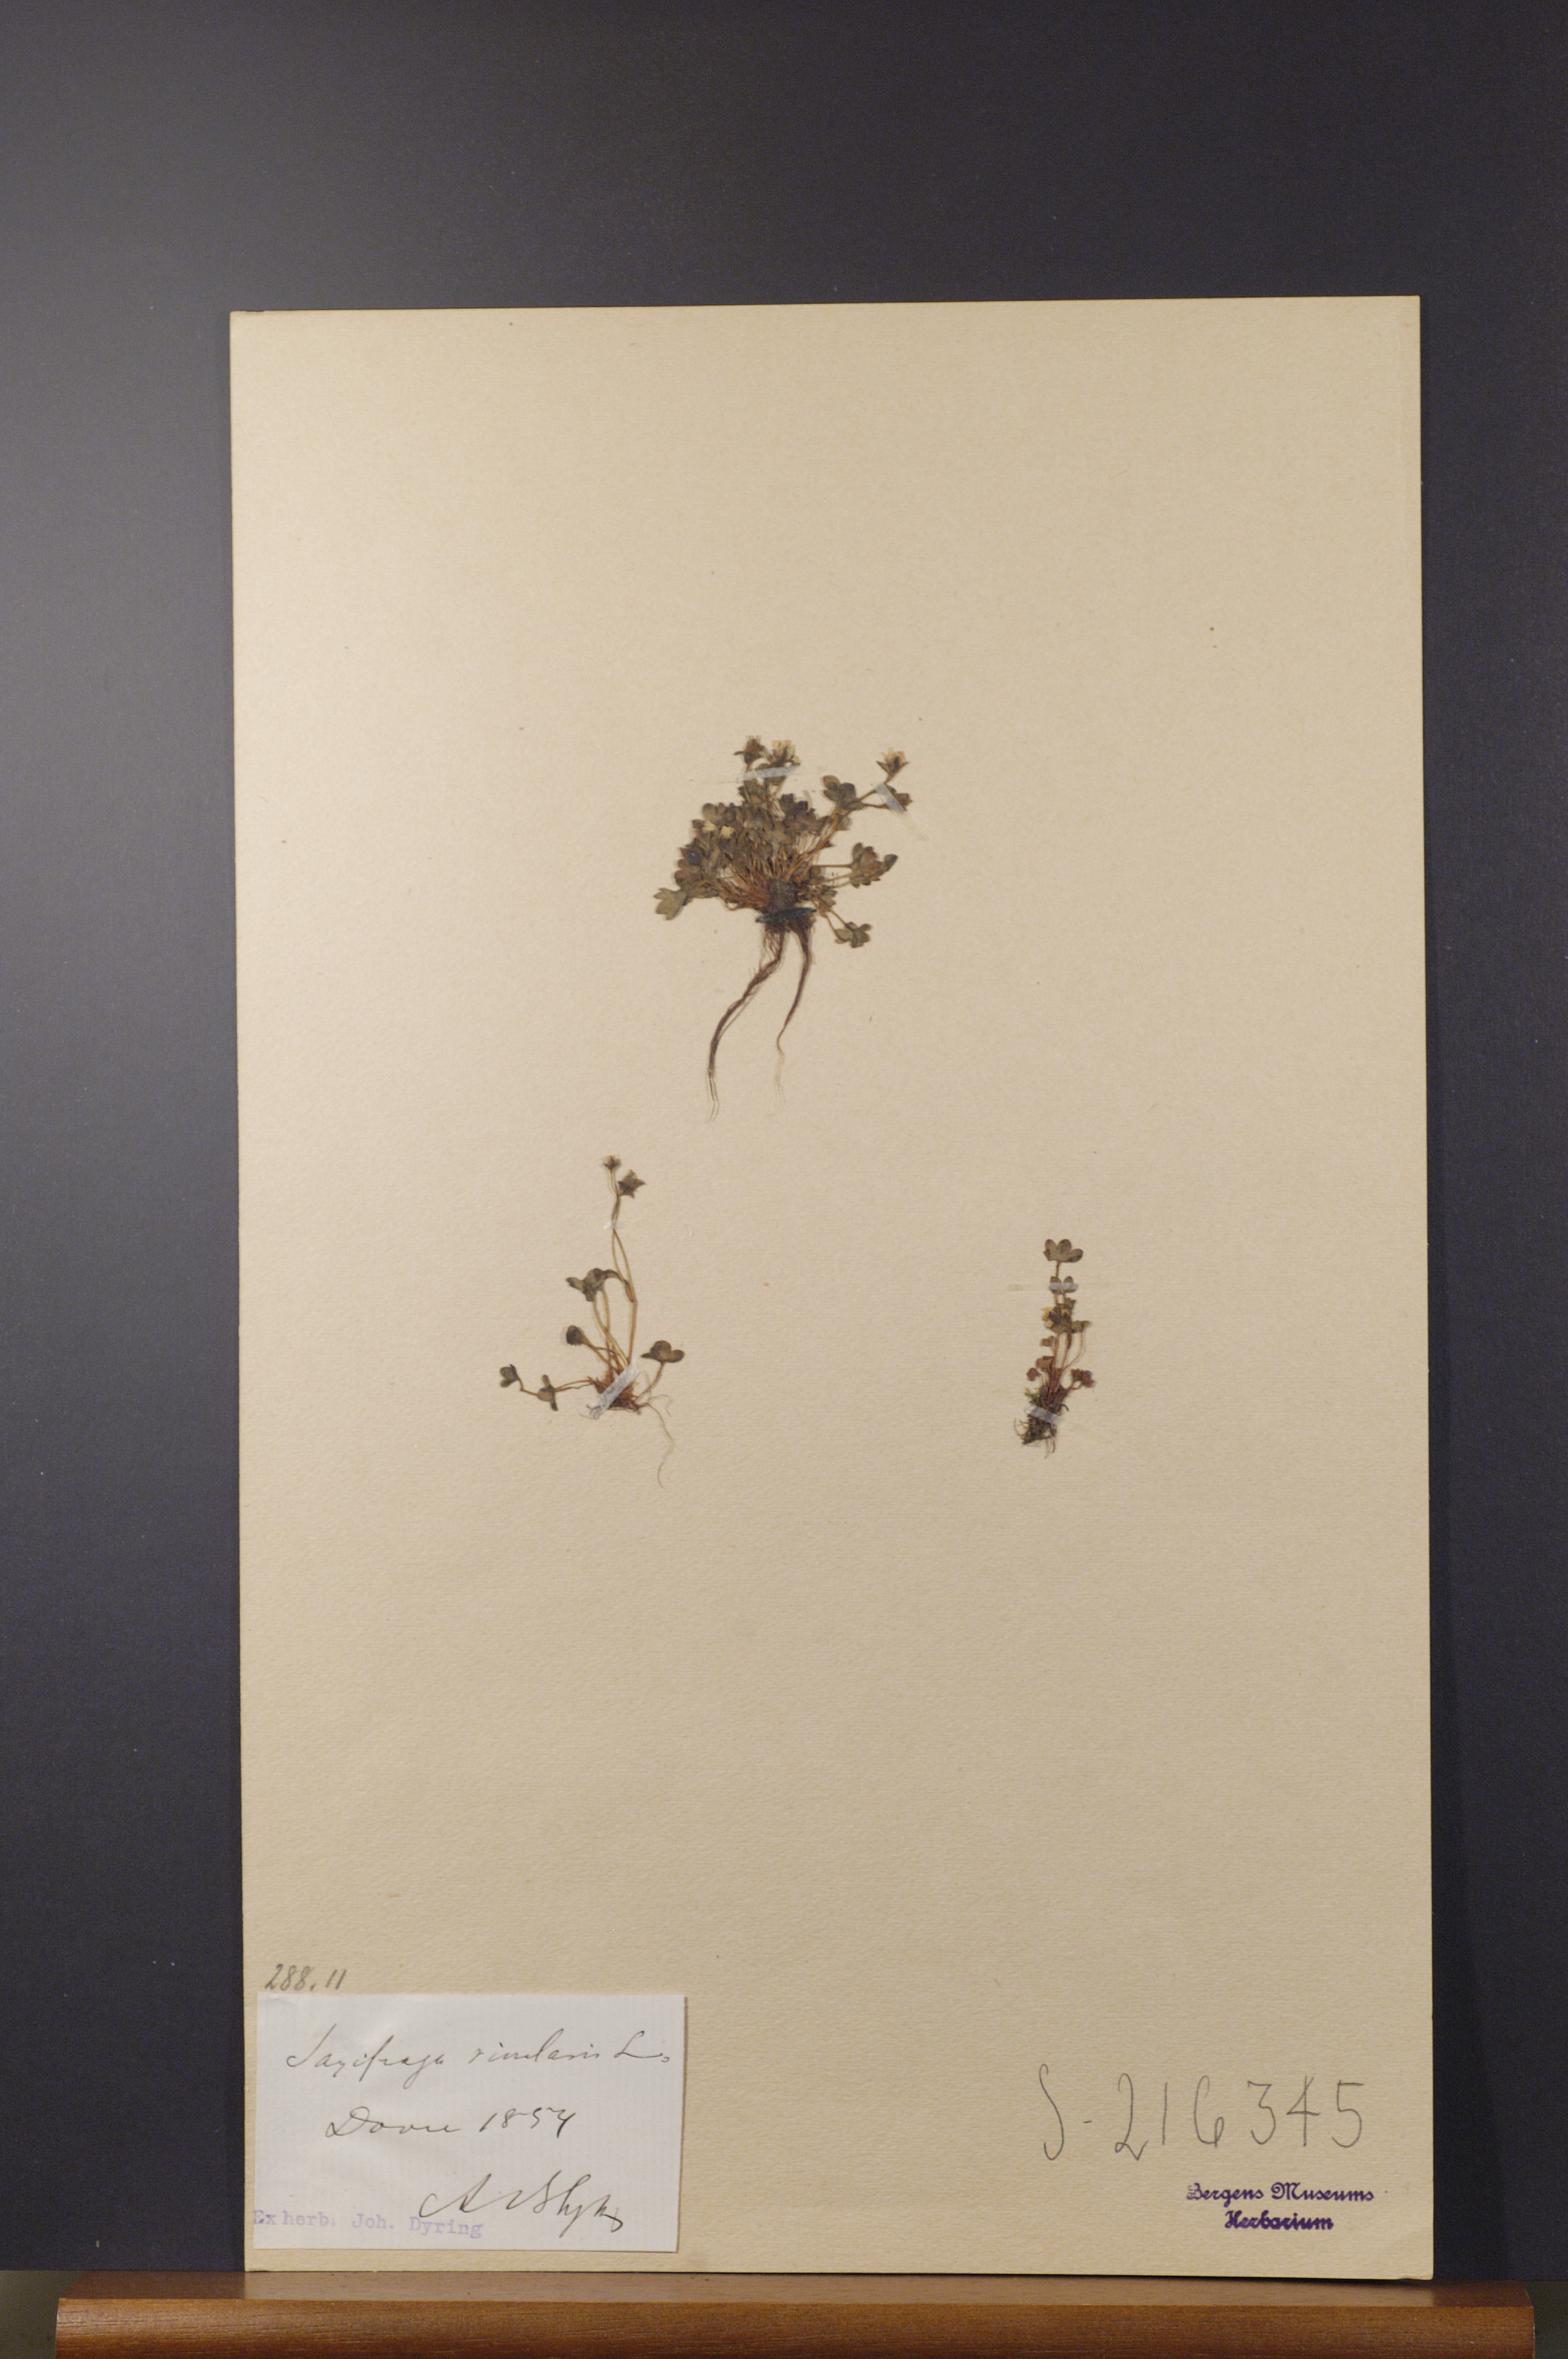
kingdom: Plantae
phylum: Tracheophyta
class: Magnoliopsida
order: Saxifragales
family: Saxifragaceae
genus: Saxifraga
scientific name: Saxifraga rivularis
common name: Highland saxifrage
